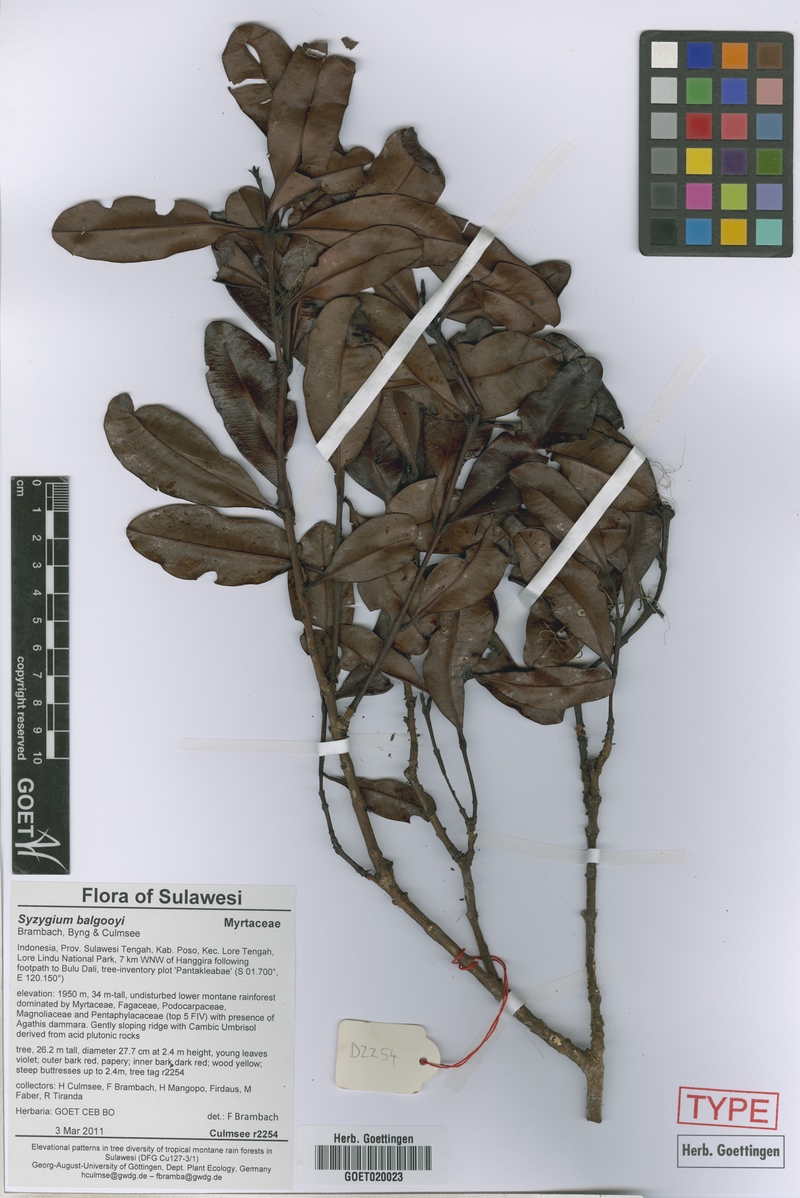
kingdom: Plantae
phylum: Tracheophyta
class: Magnoliopsida
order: Myrtales
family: Myrtaceae
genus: Syzygium
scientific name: Syzygium balgooyi
